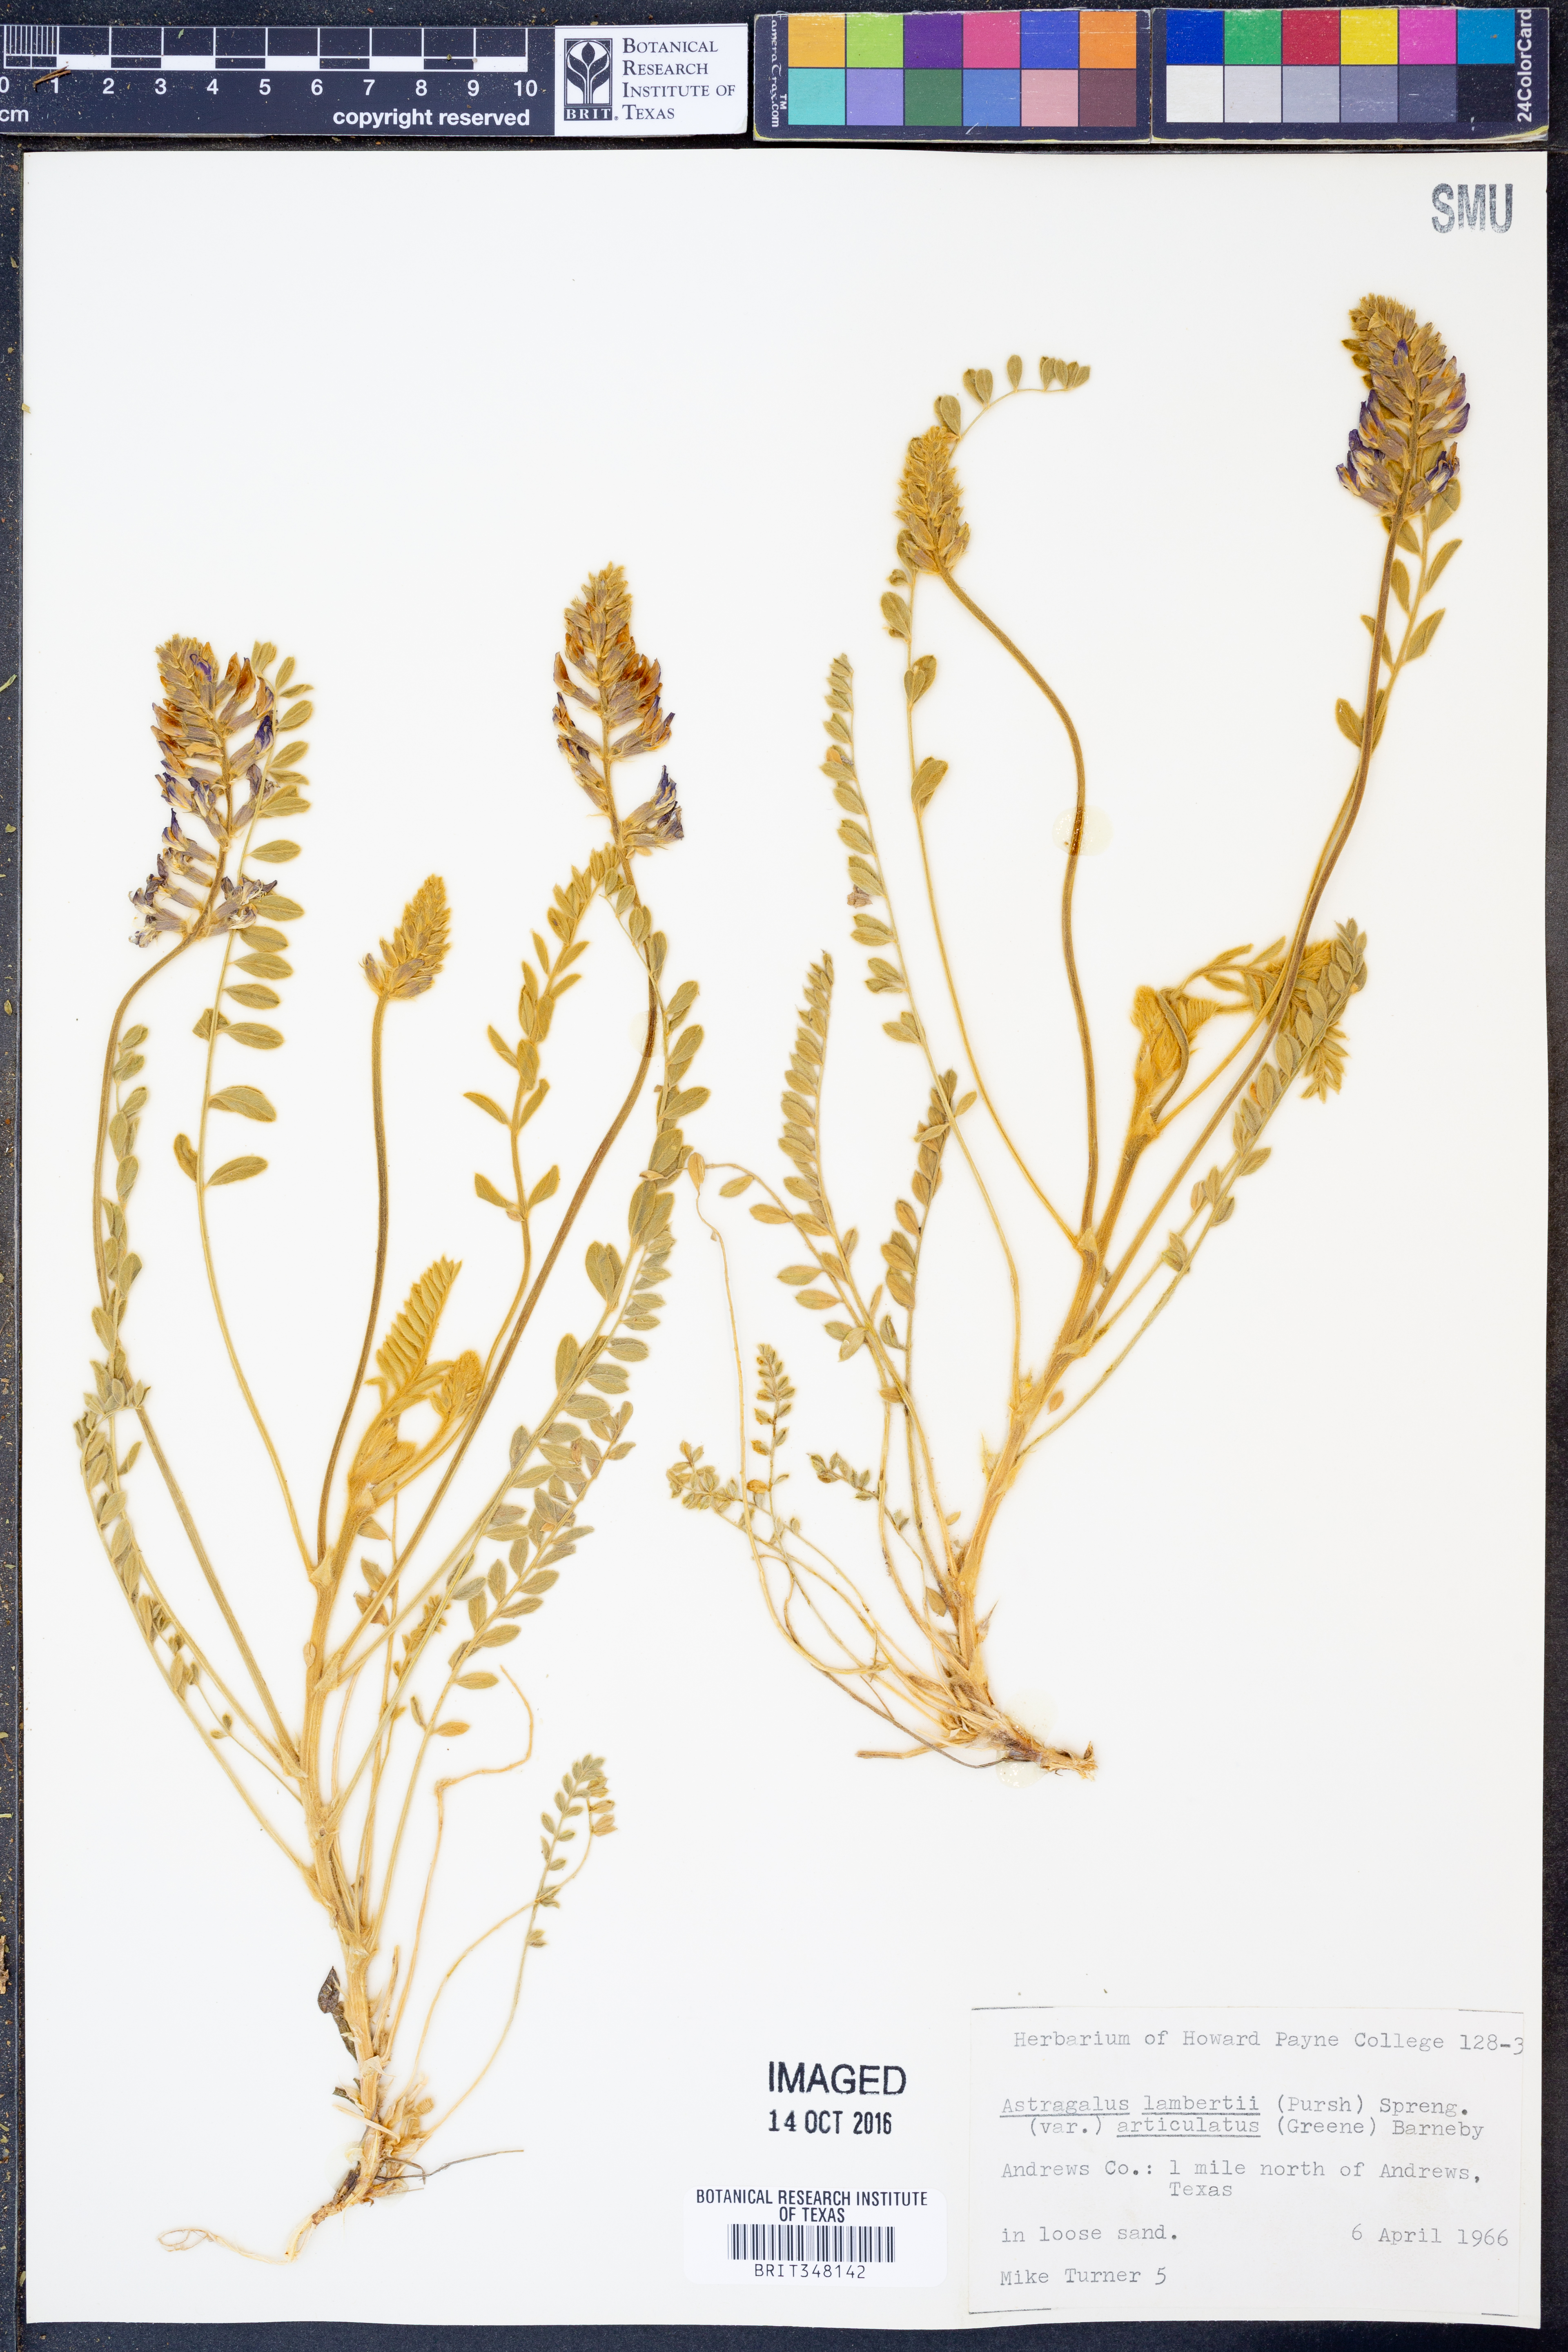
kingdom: Plantae
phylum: Tracheophyta
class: Magnoliopsida
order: Fabales
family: Fabaceae
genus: Oxytropis
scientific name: Oxytropis lambertii
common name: Purple locoweed
